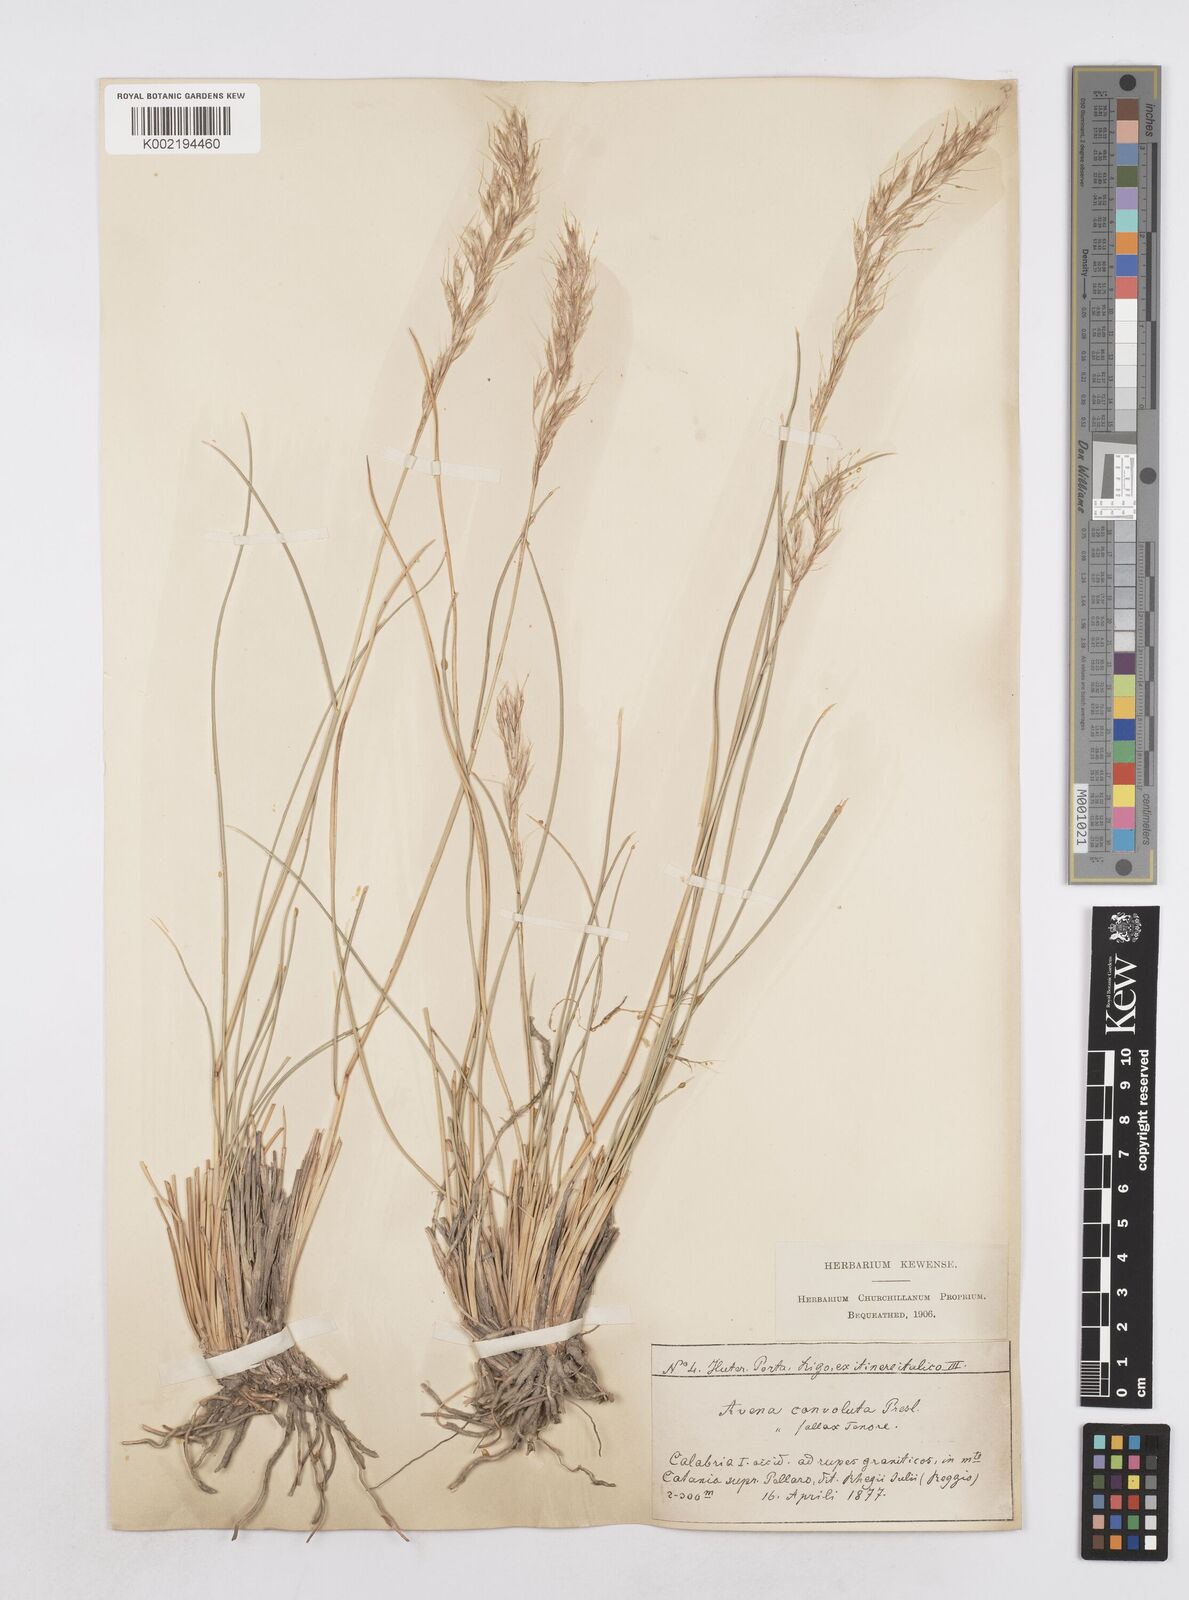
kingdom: Plantae
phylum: Tracheophyta
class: Liliopsida
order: Poales
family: Poaceae
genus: Helictotrichon
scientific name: Helictotrichon convolutum
